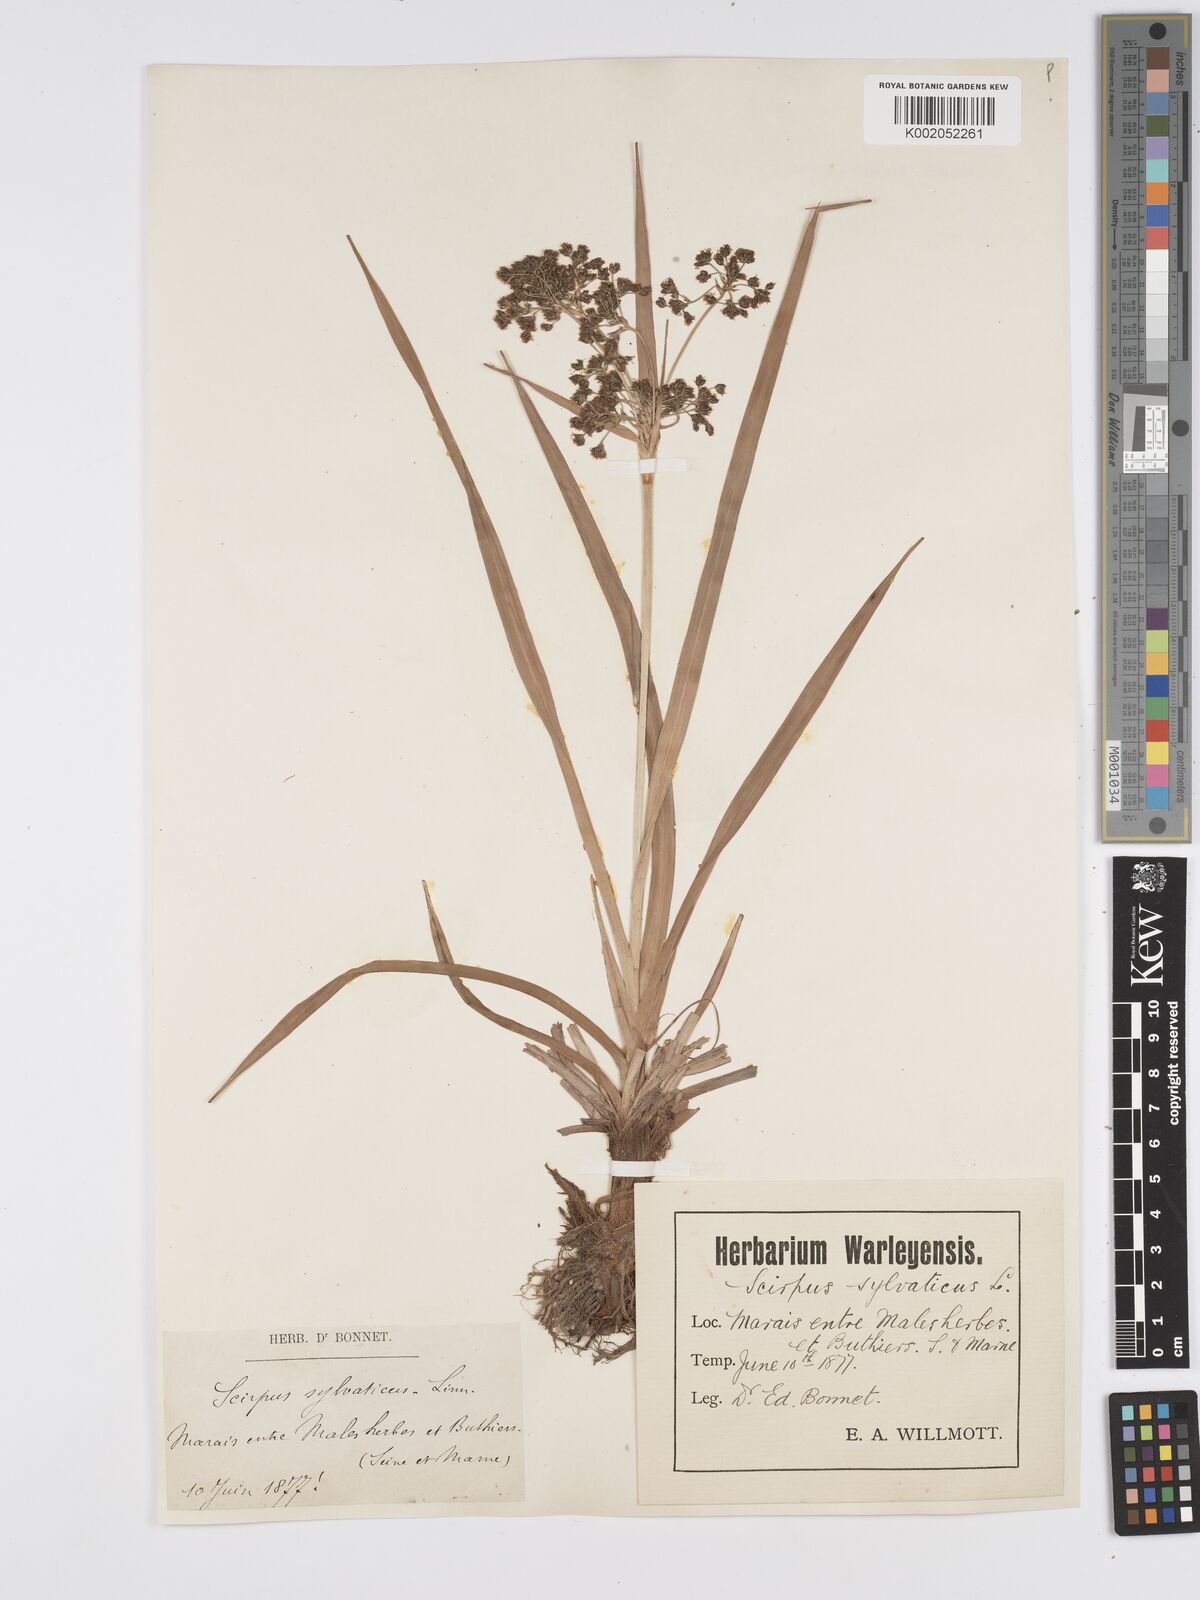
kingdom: Plantae
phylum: Tracheophyta
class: Liliopsida
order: Poales
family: Cyperaceae
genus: Scirpus
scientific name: Scirpus sylvaticus
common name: Wood club-rush
